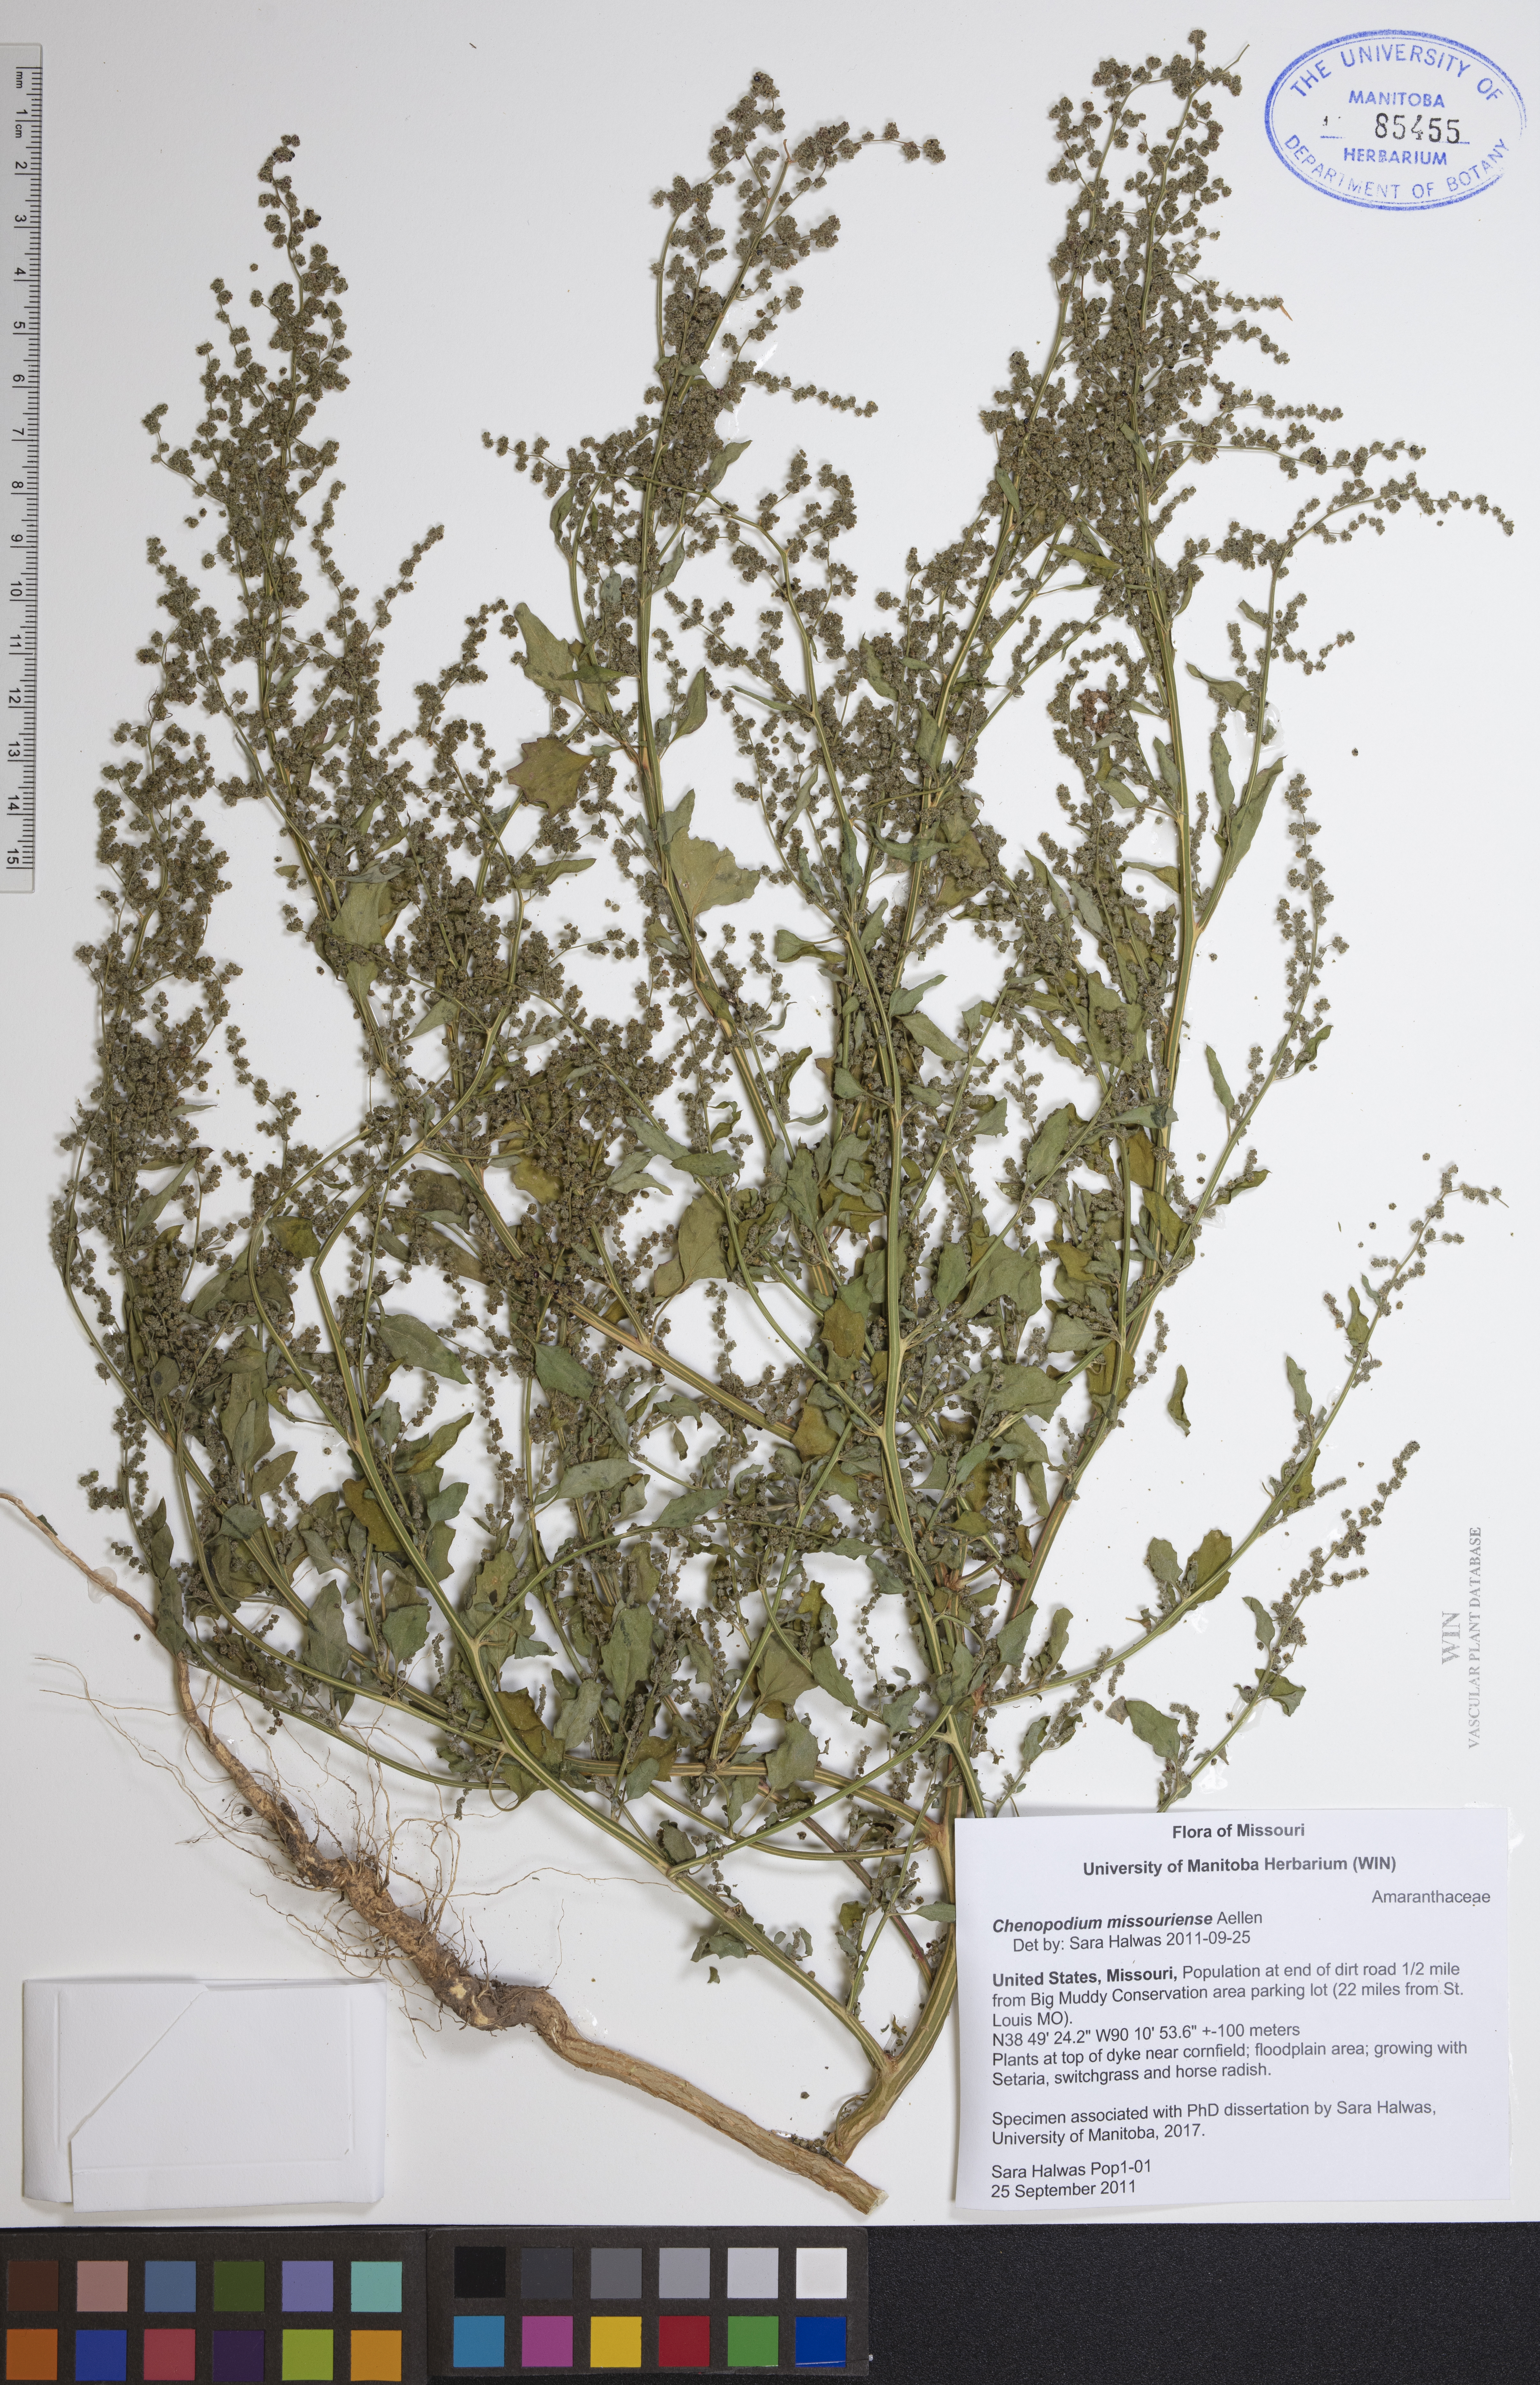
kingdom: Plantae
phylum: Tracheophyta
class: Magnoliopsida
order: Caryophyllales
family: Amaranthaceae
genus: Chenopodium
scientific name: Chenopodium album
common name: Fat-hen
